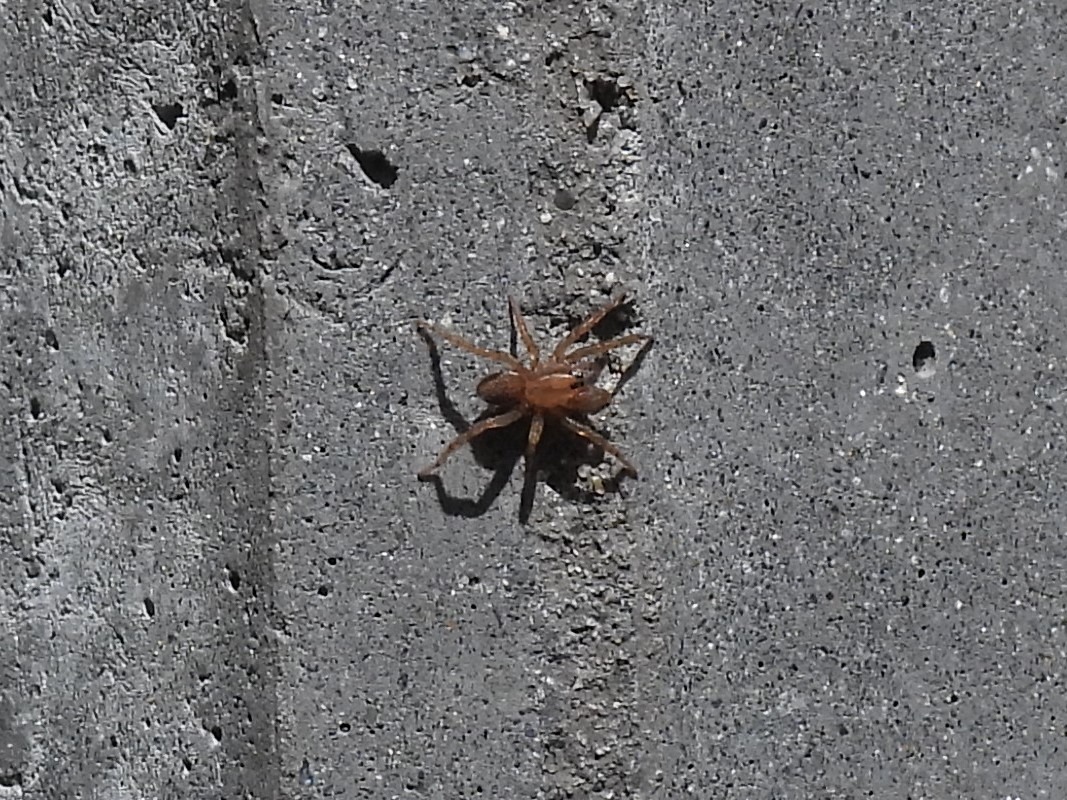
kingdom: Animalia
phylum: Arthropoda
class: Arachnida
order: Araneae
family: Lycosidae
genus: Trochosa
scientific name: Trochosa
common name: Bjørneedderkopslægten
